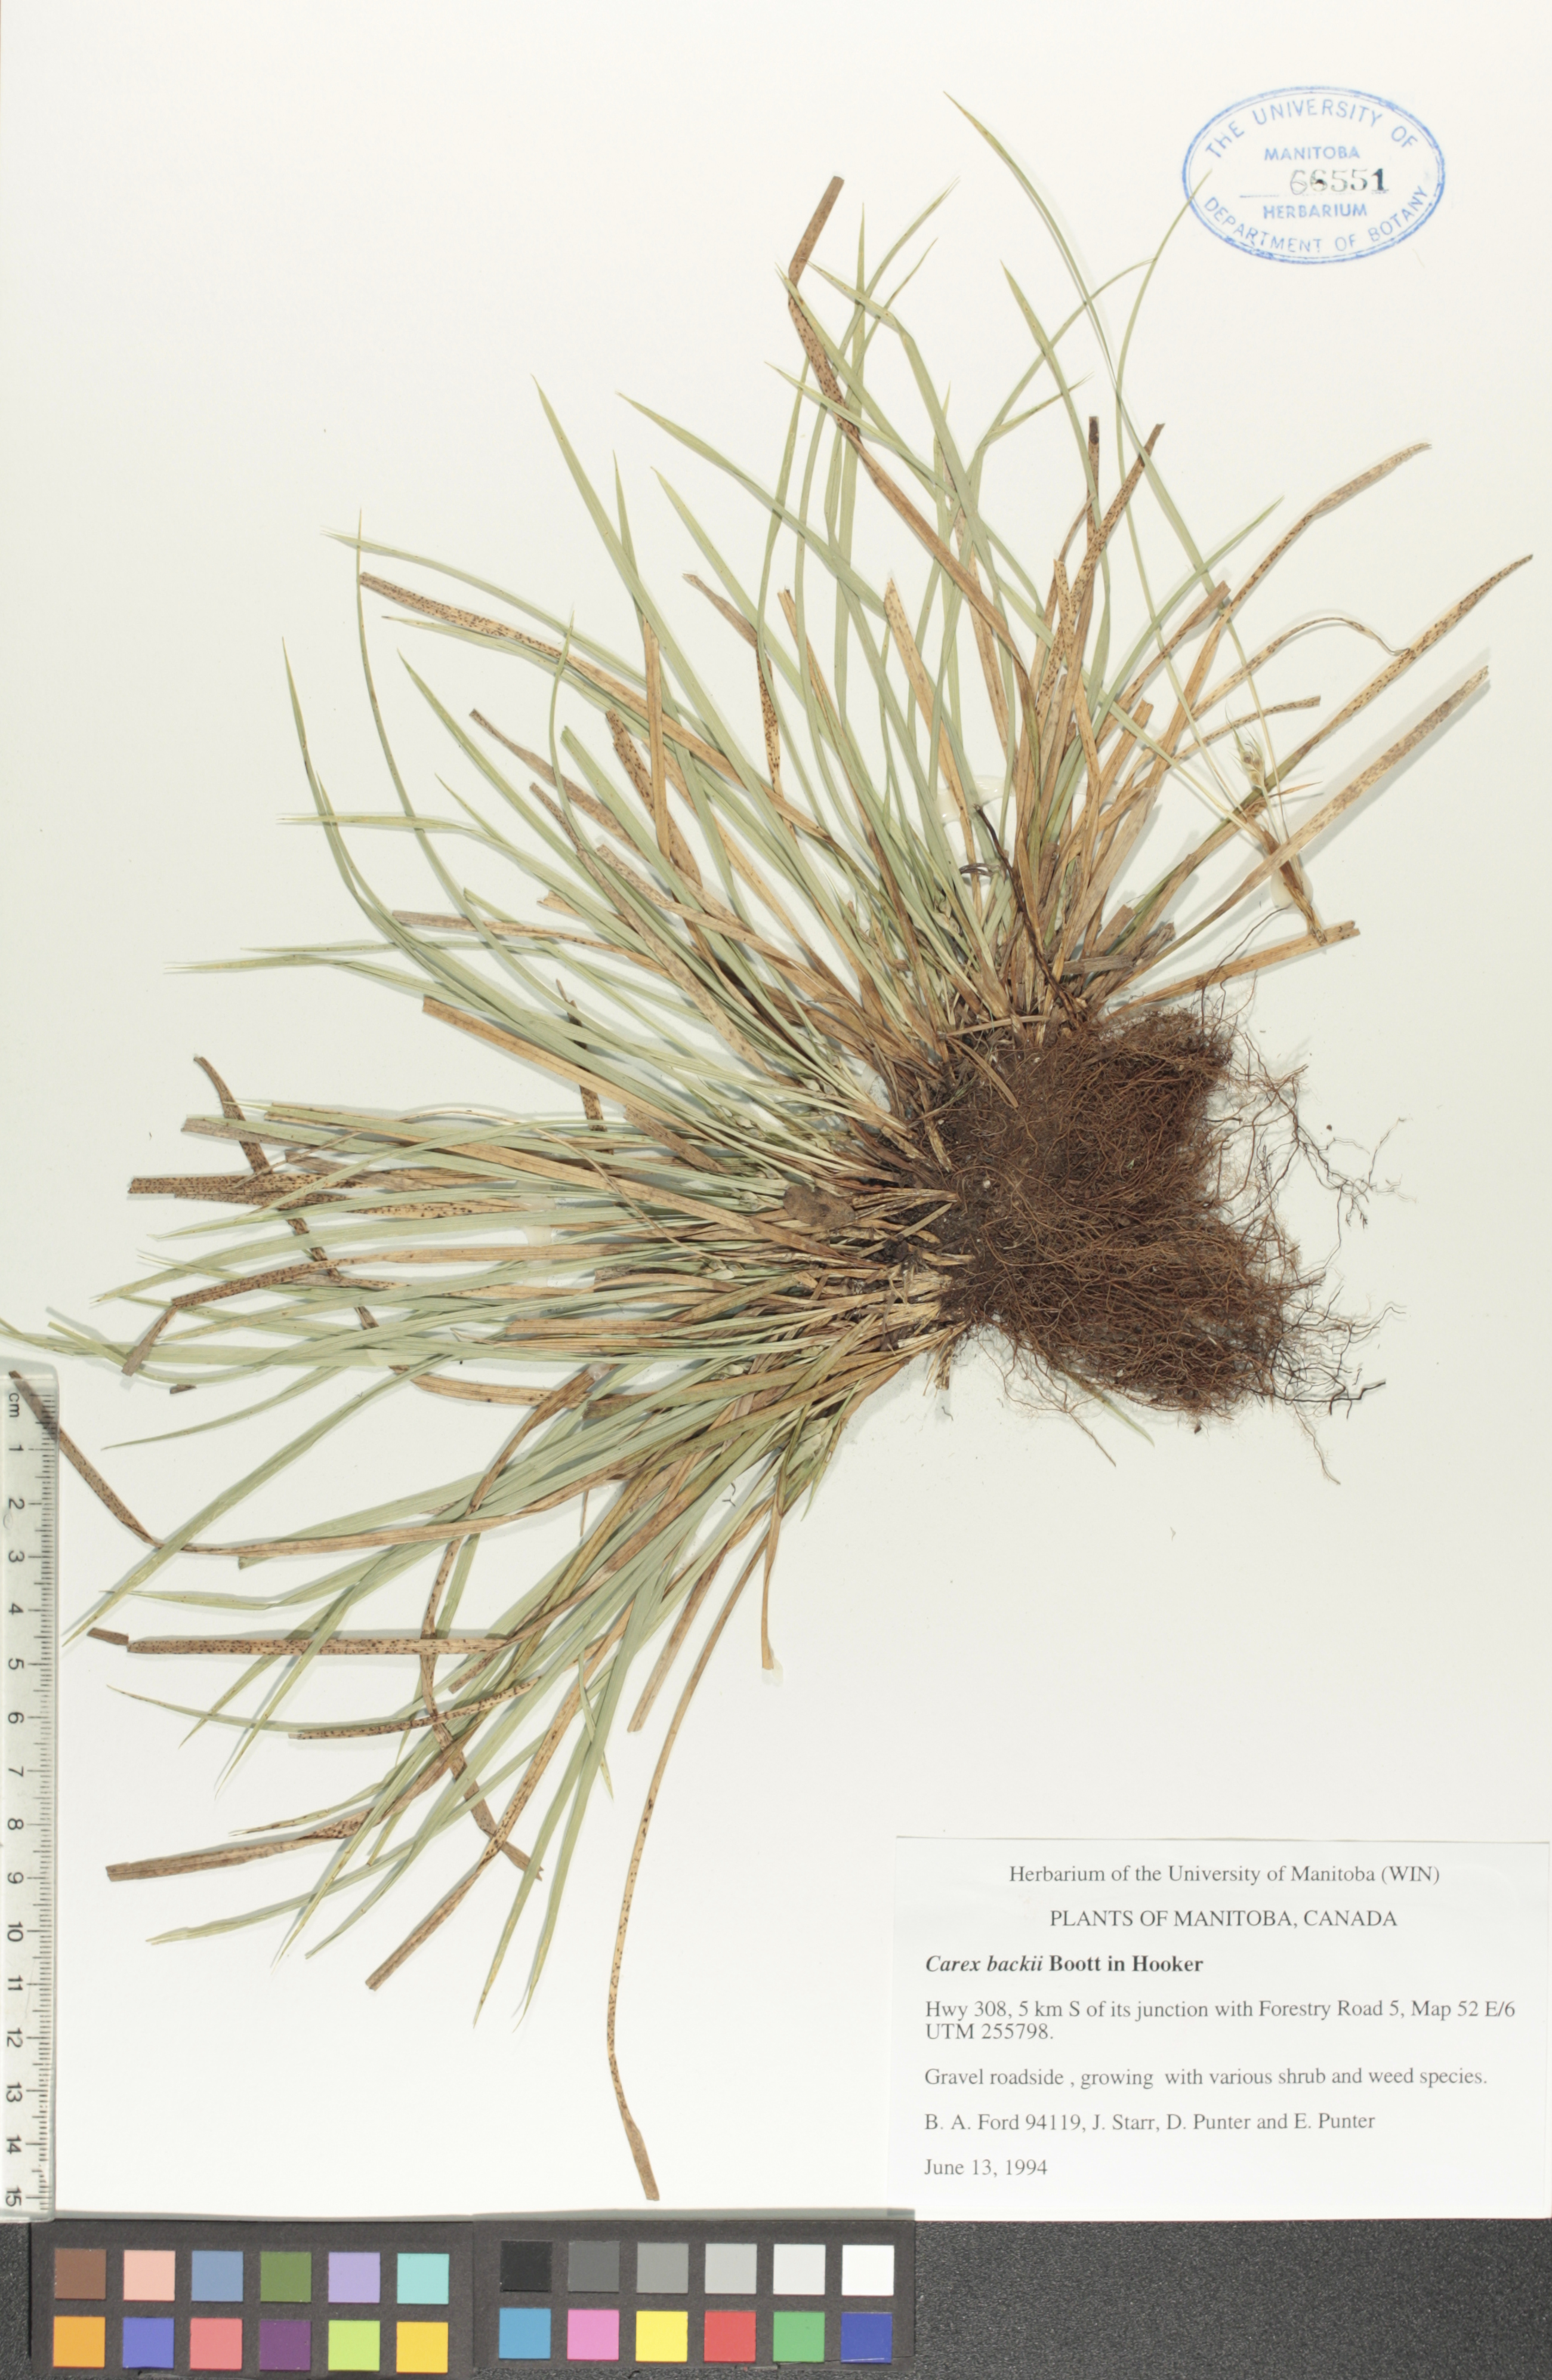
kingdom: Plantae
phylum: Tracheophyta
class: Liliopsida
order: Poales
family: Cyperaceae
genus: Carex
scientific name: Carex backii
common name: Back's sedge
